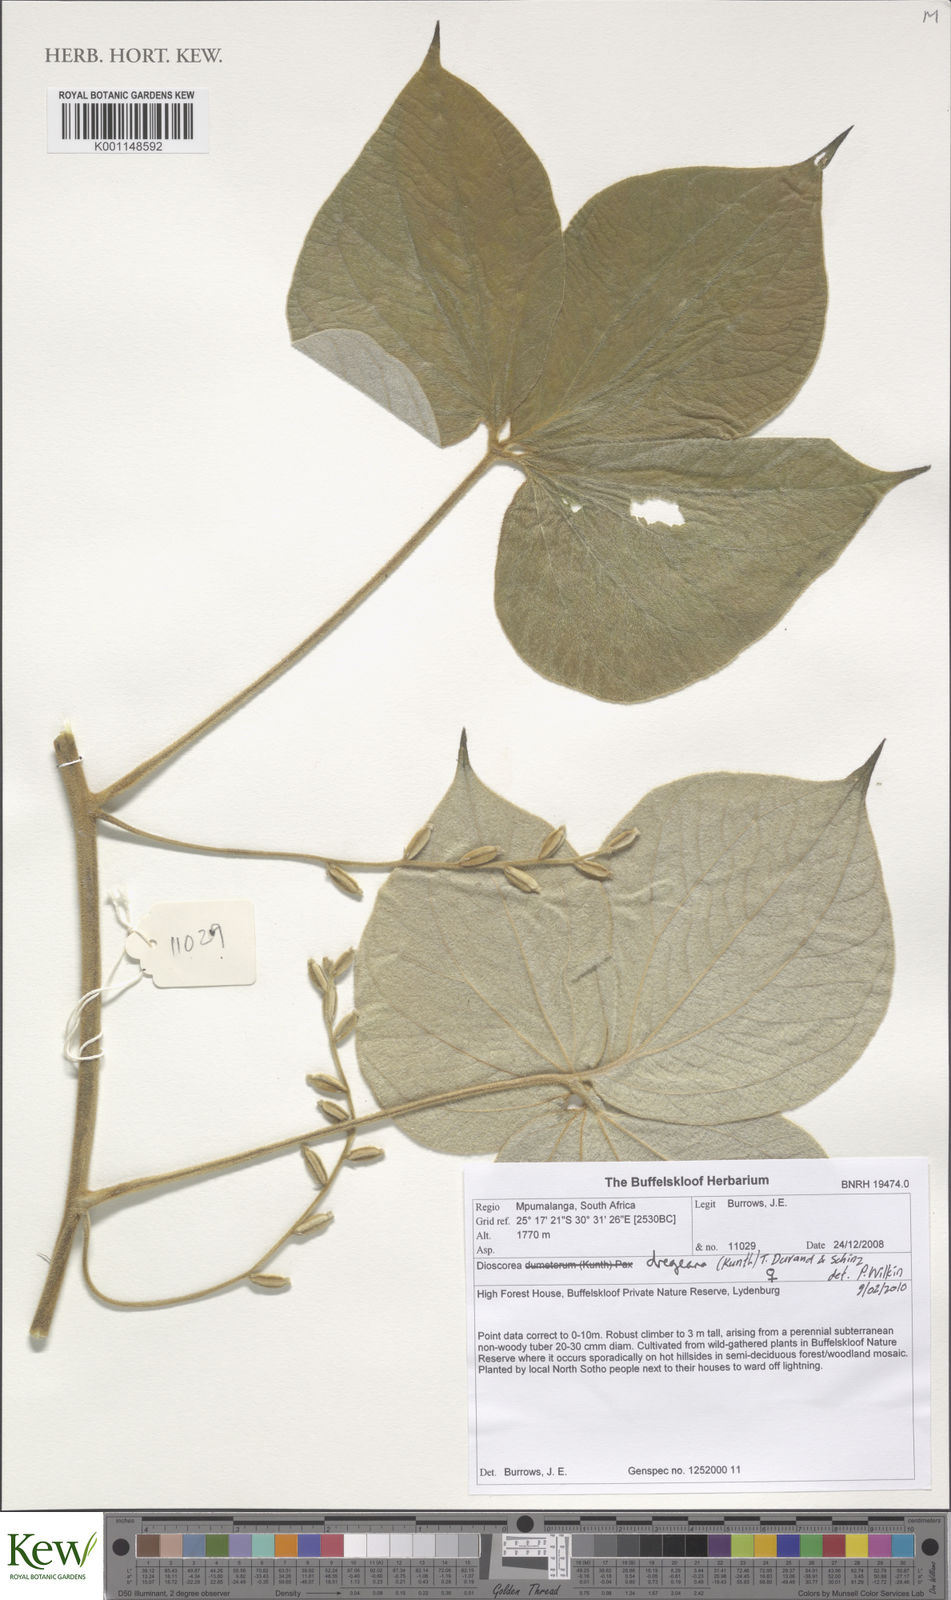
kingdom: Plantae
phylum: Tracheophyta
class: Liliopsida
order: Dioscoreales
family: Dioscoreaceae
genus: Dioscorea
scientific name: Dioscorea dregeana
